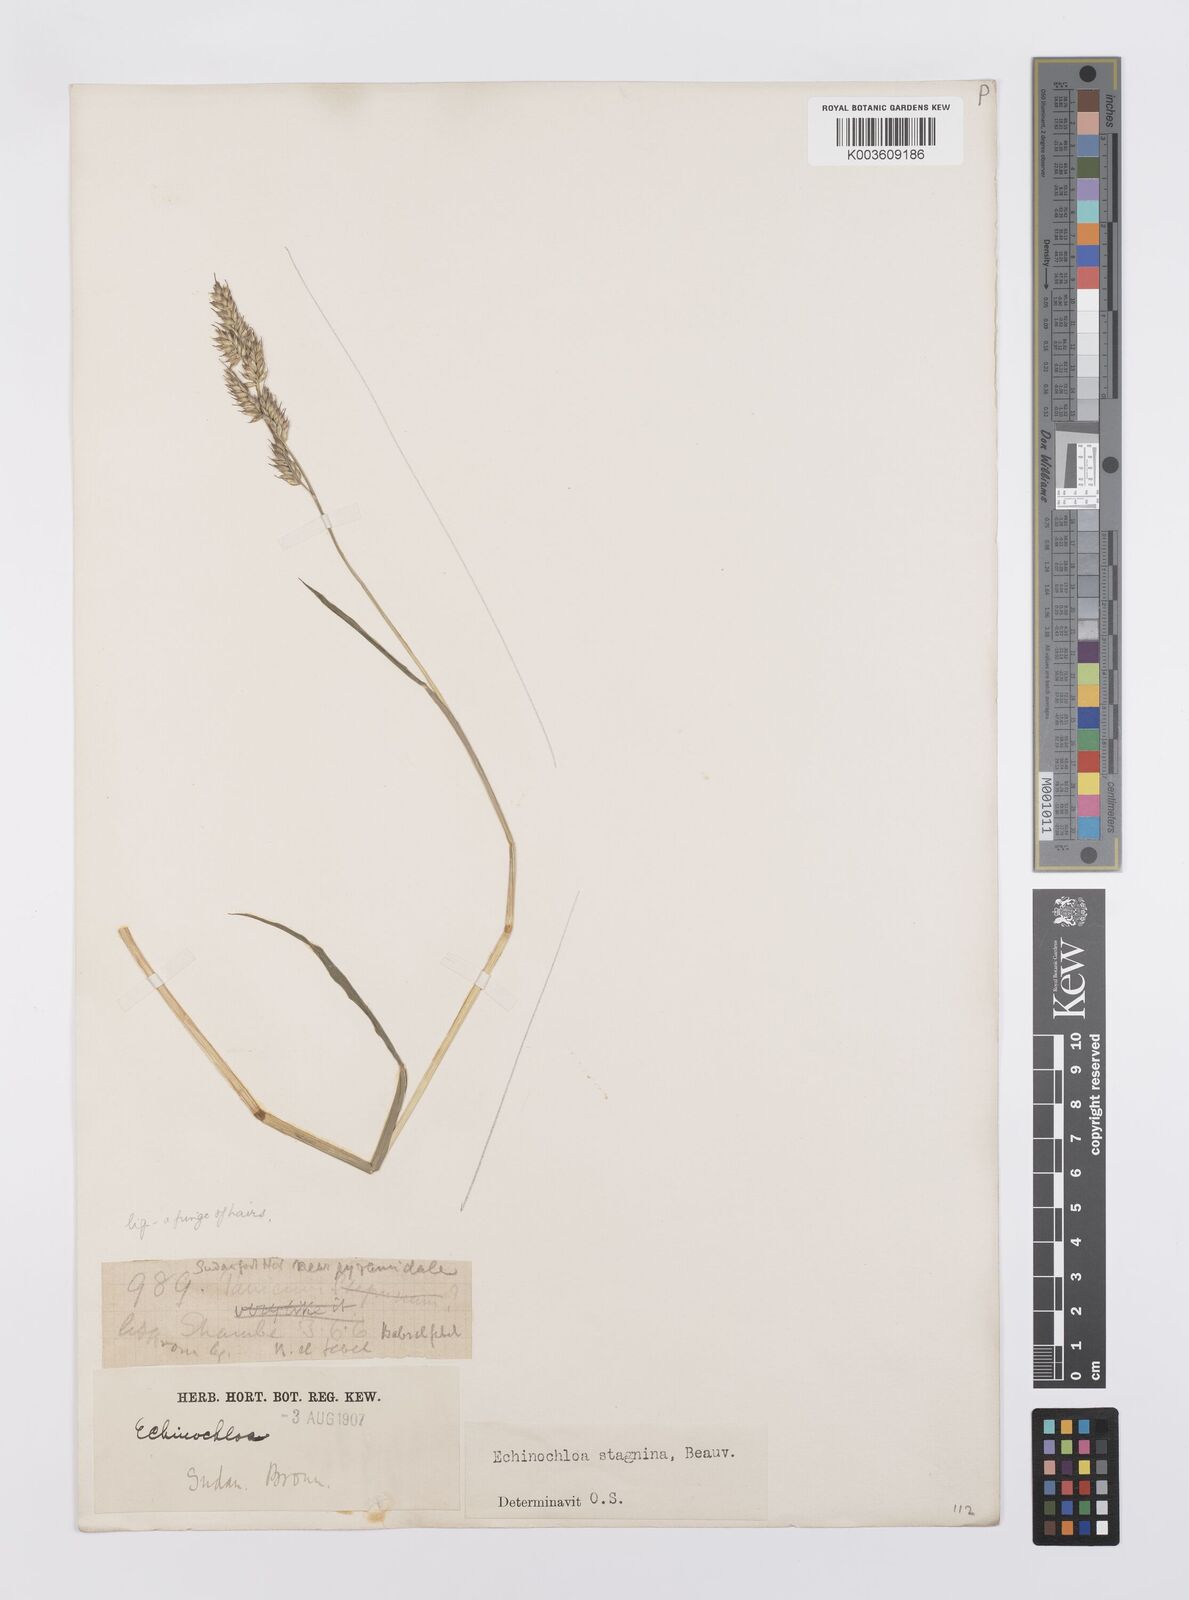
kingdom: Plantae
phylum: Tracheophyta
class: Liliopsida
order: Poales
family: Poaceae
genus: Echinochloa
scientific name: Echinochloa stagnina
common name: Burgu grass
